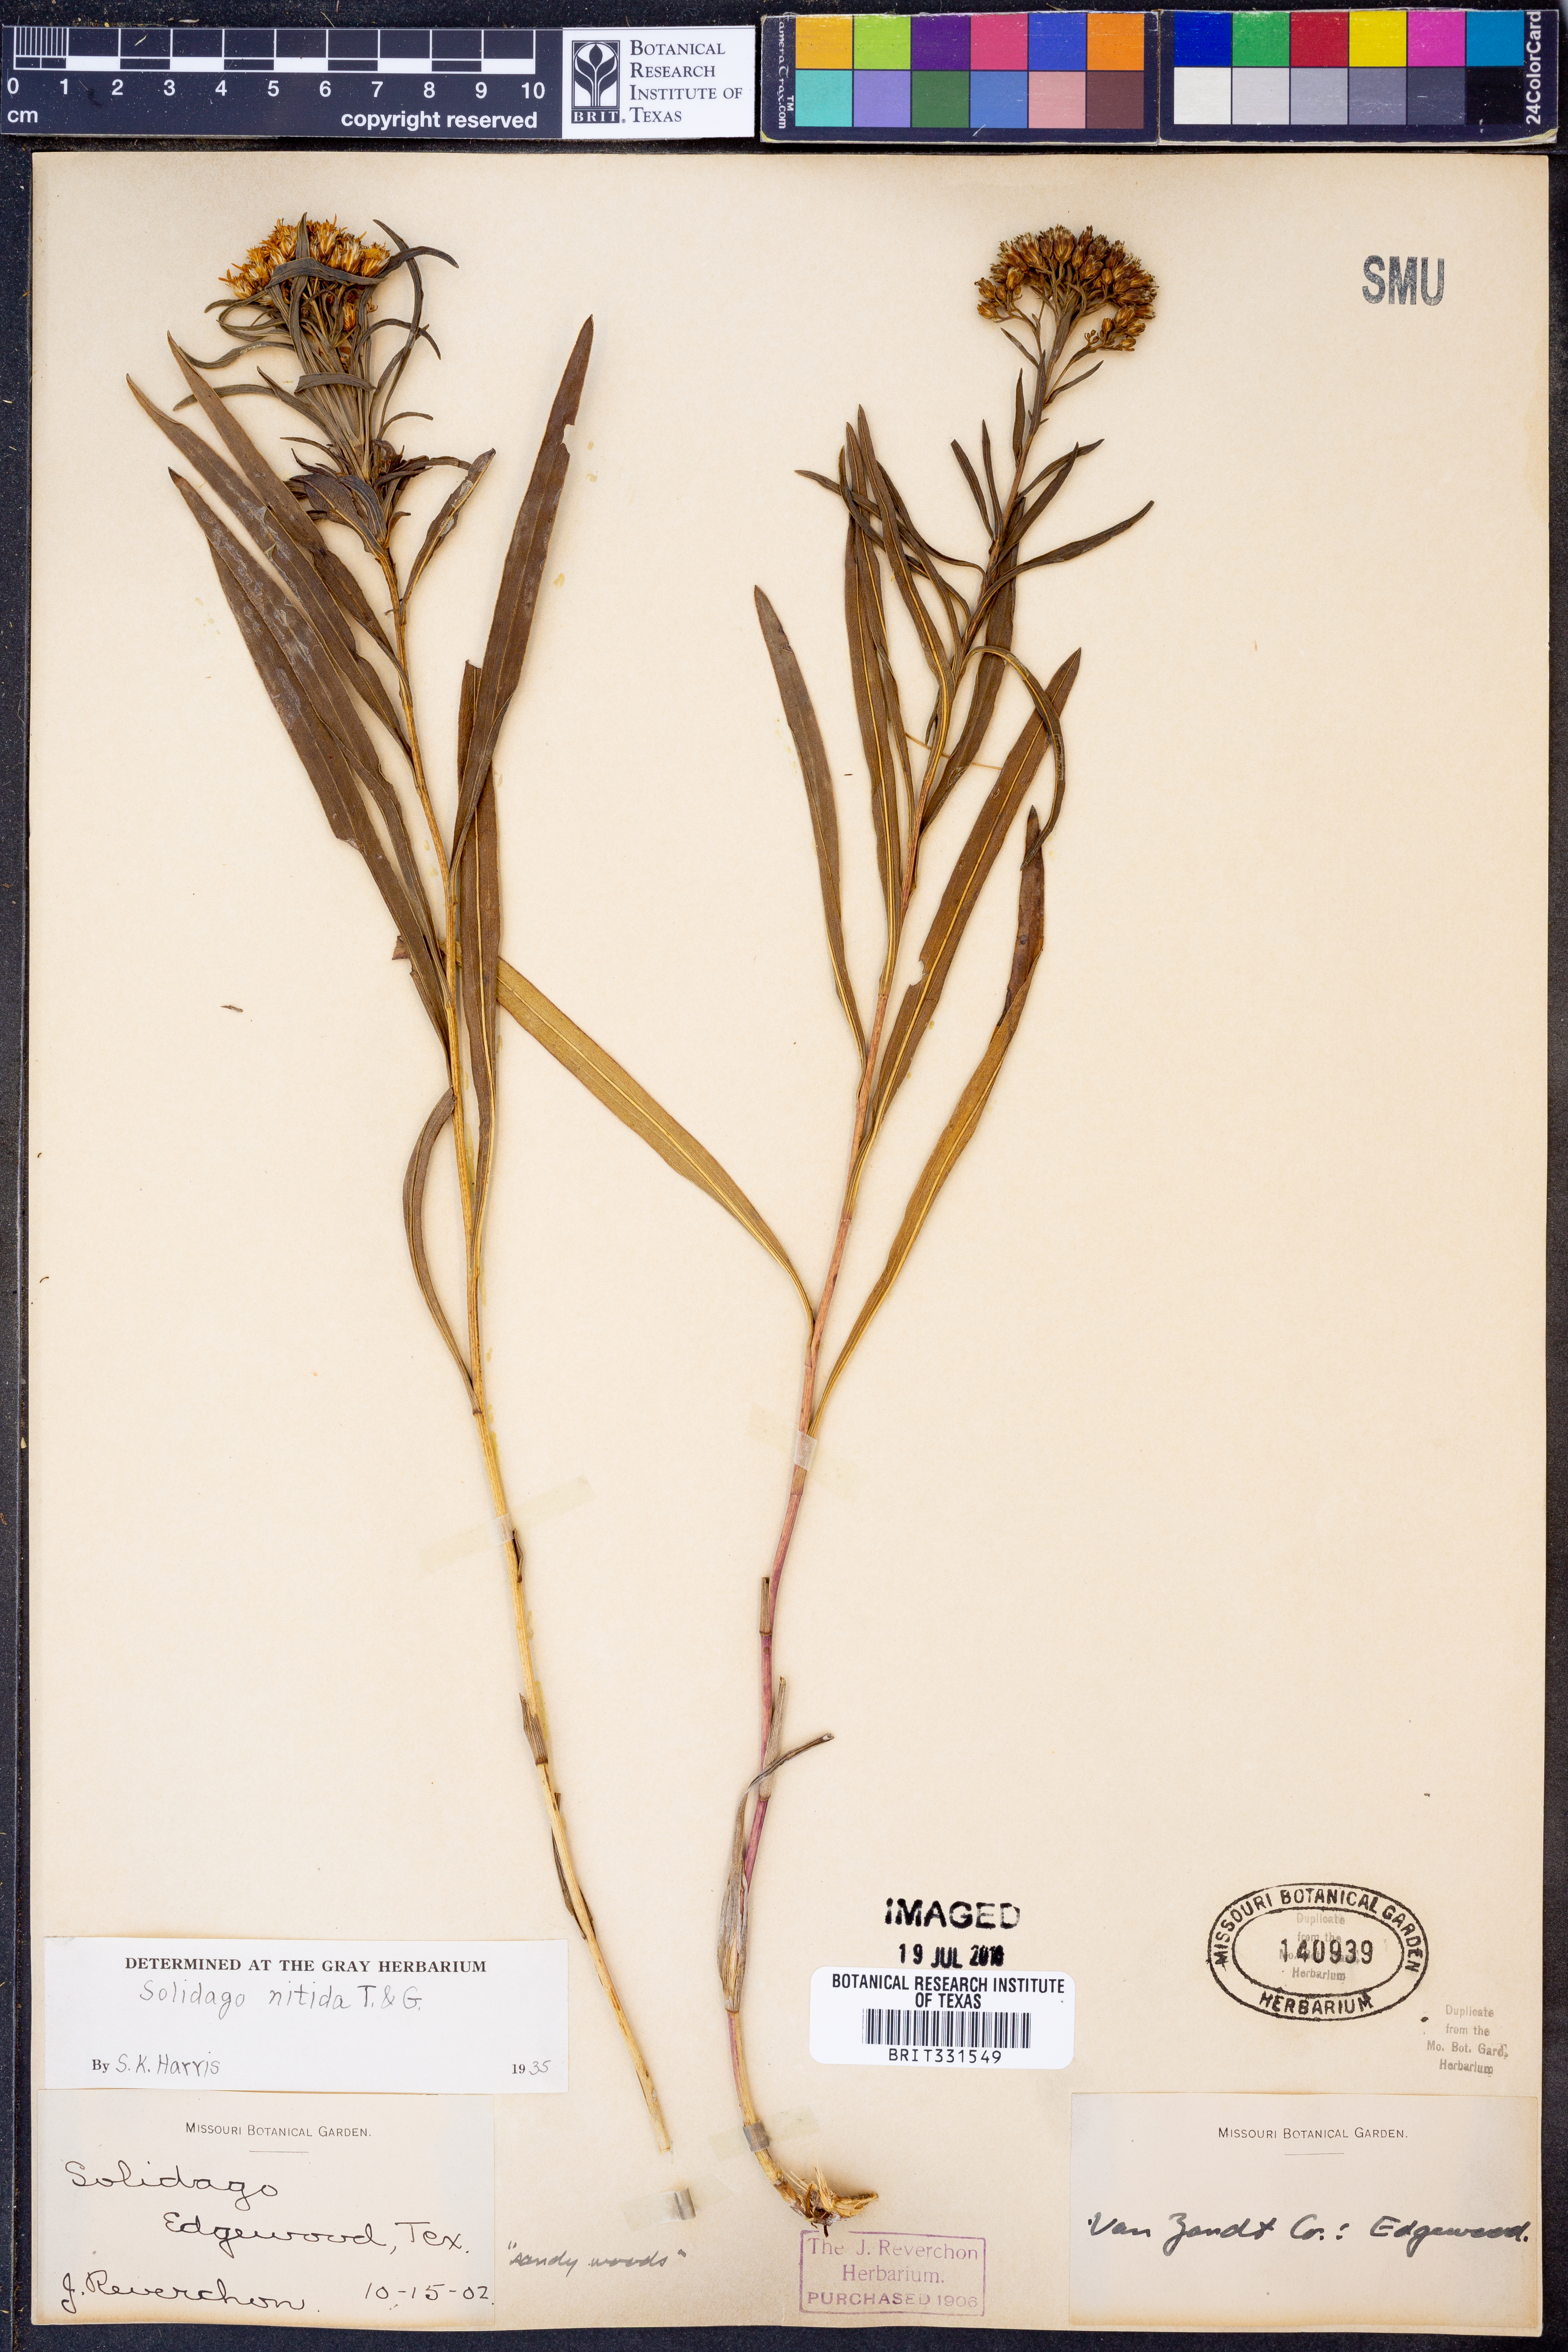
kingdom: Plantae
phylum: Tracheophyta
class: Magnoliopsida
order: Asterales
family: Asteraceae
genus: Solidago
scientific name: Solidago nitida
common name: Shiny goldenrod
